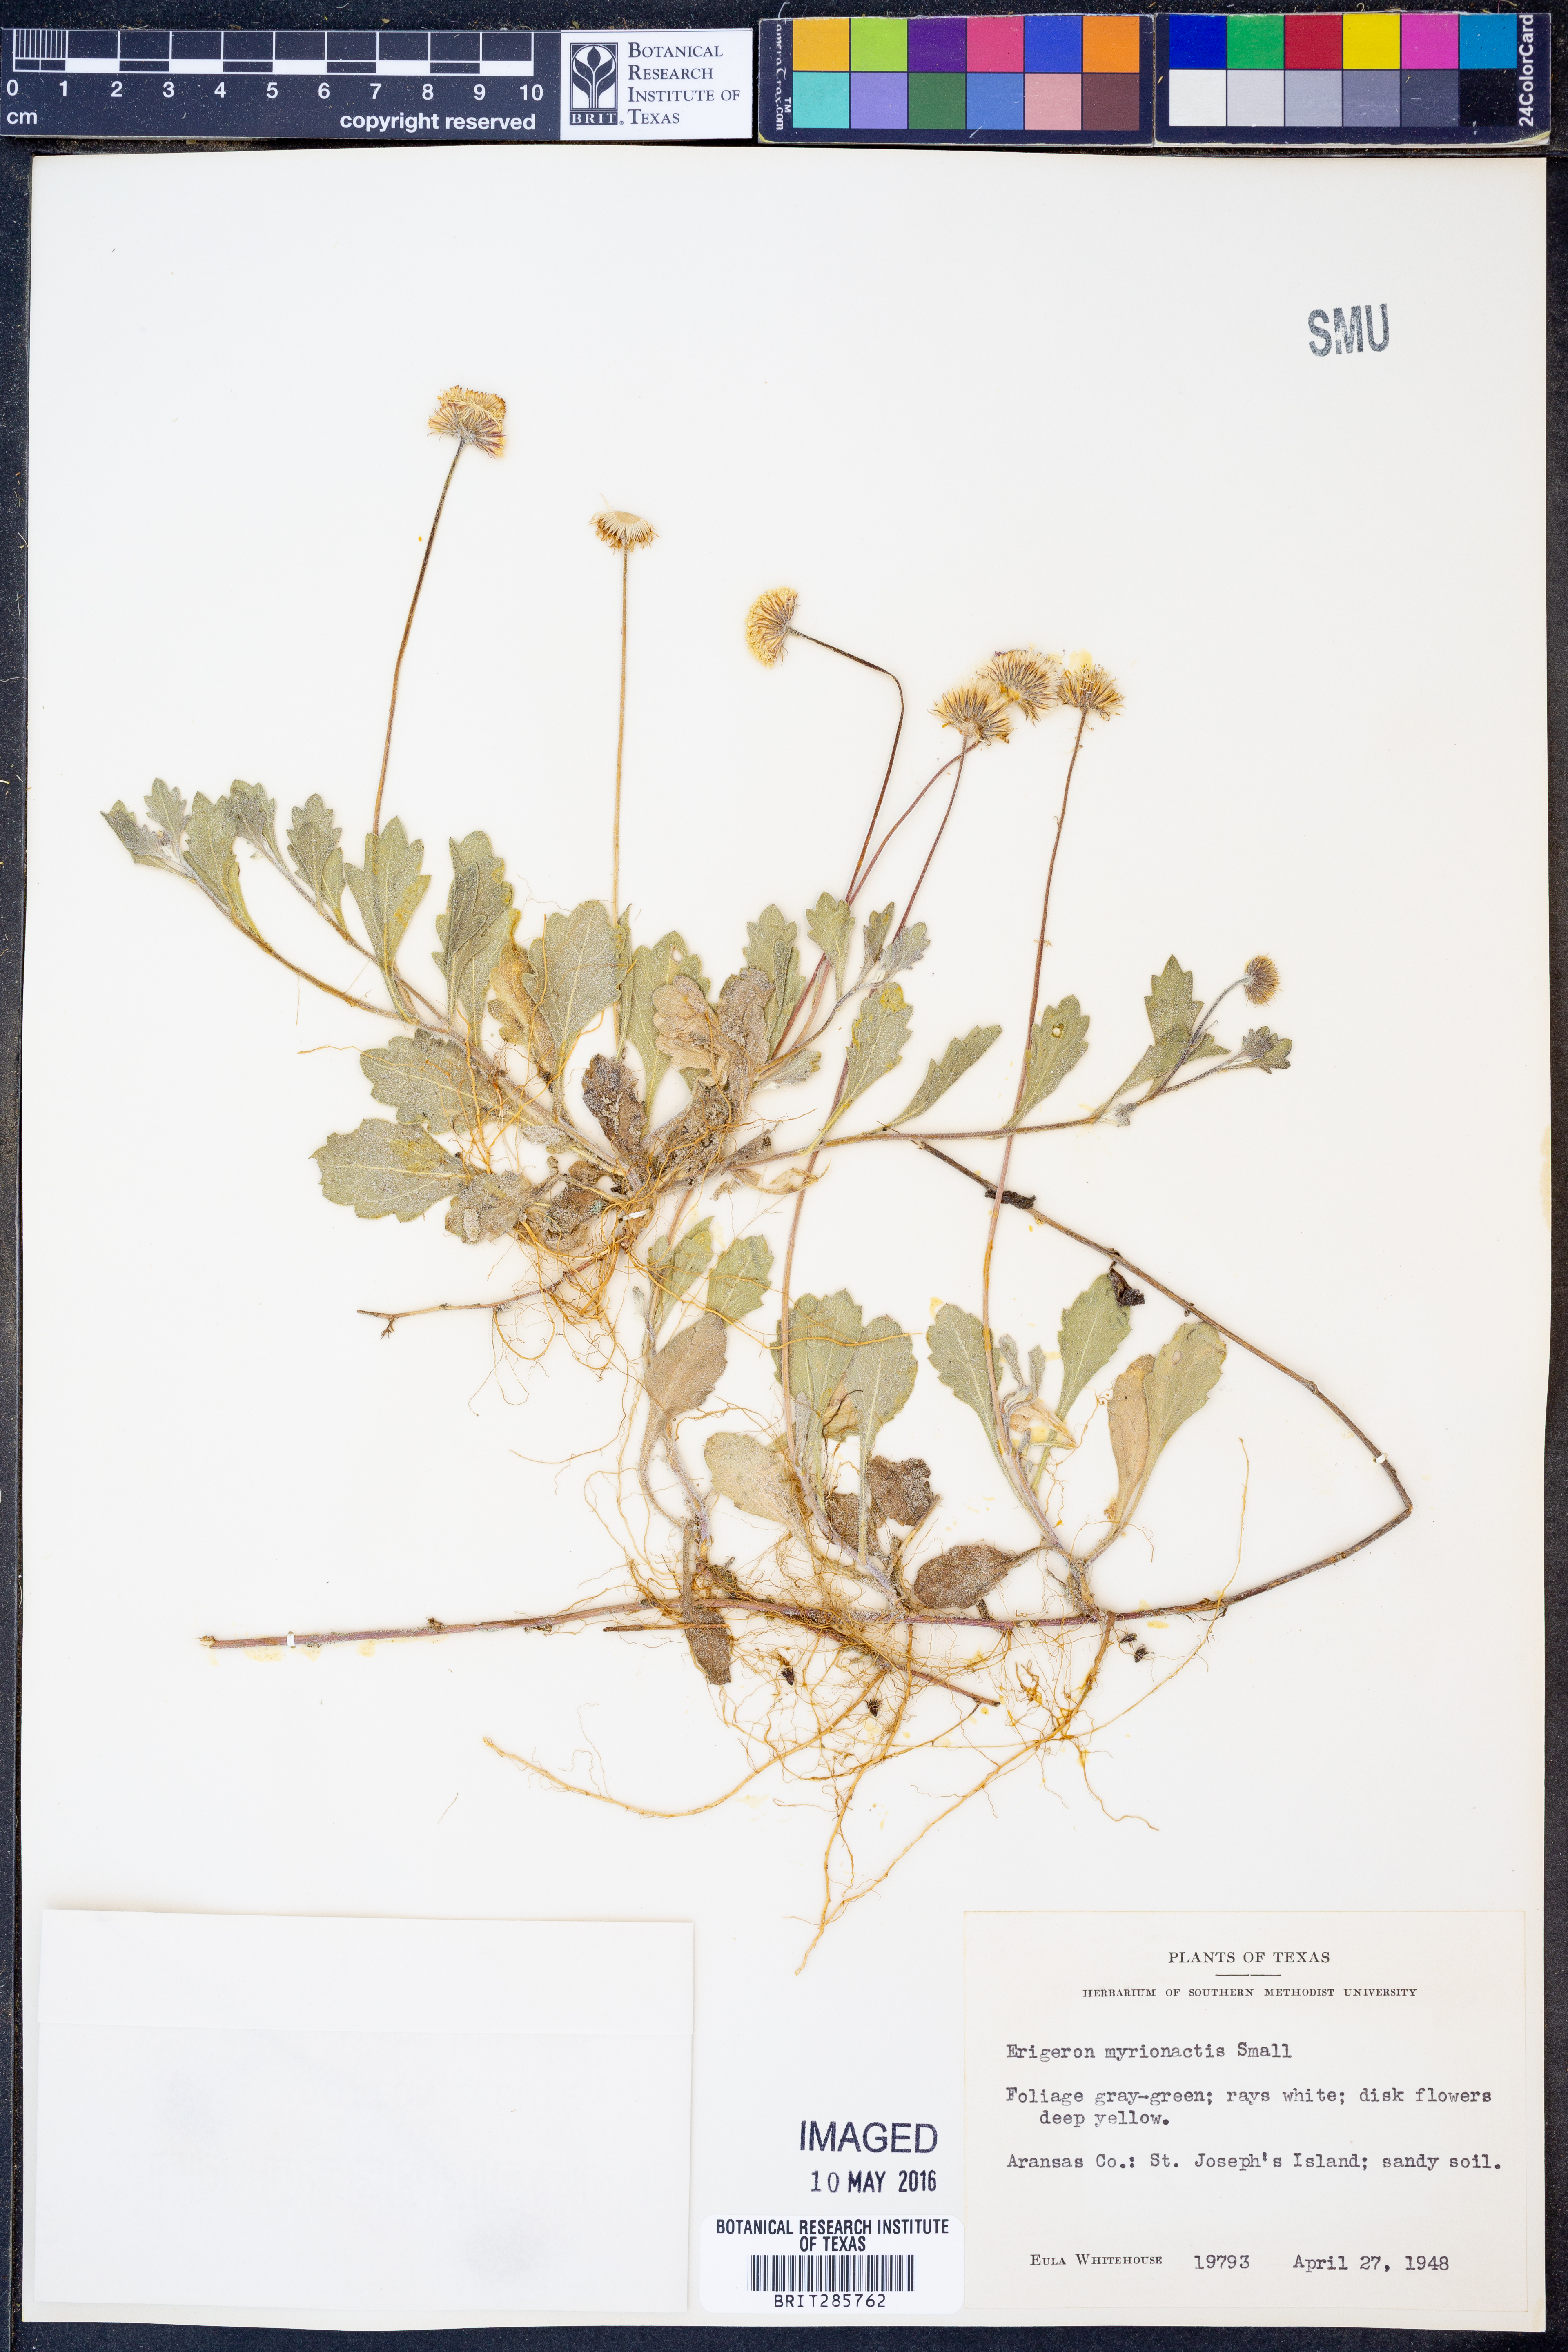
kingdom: Plantae
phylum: Tracheophyta
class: Magnoliopsida
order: Asterales
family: Asteraceae
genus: Erigeron
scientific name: Erigeron procumbens
